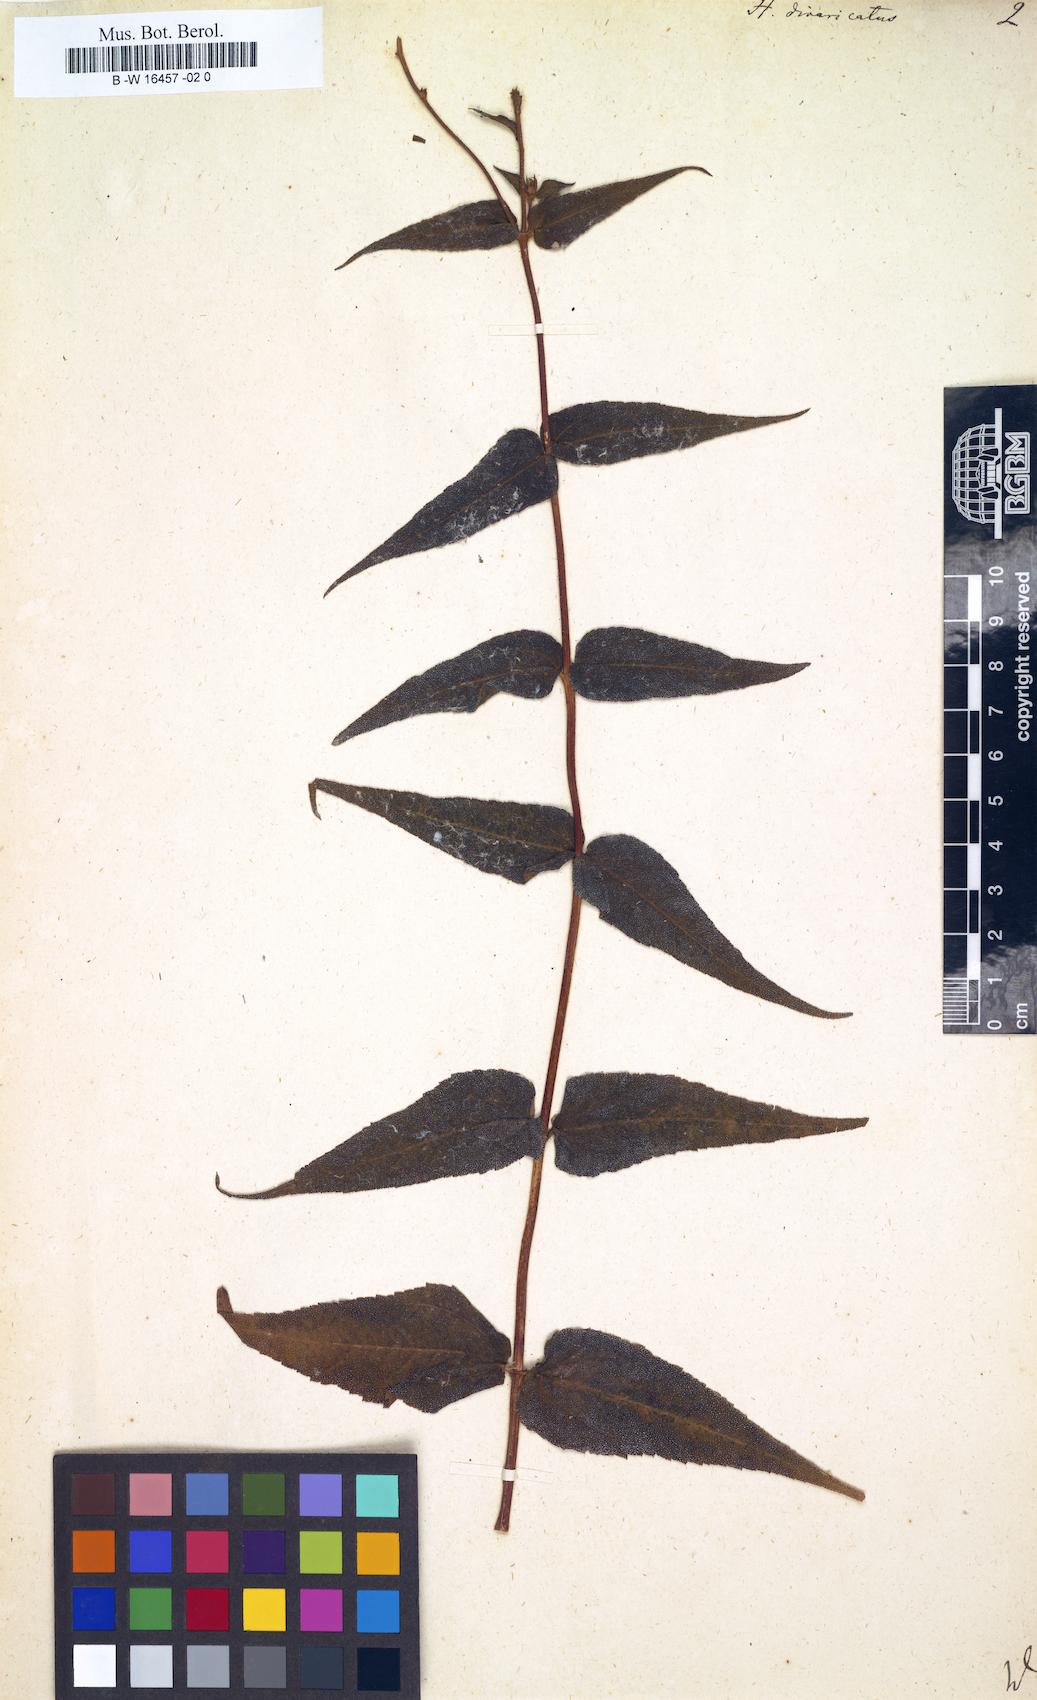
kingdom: Plantae
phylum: Tracheophyta
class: Magnoliopsida
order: Asterales
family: Asteraceae
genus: Helianthus
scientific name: Helianthus divaricatus
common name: Divergent sunflower
